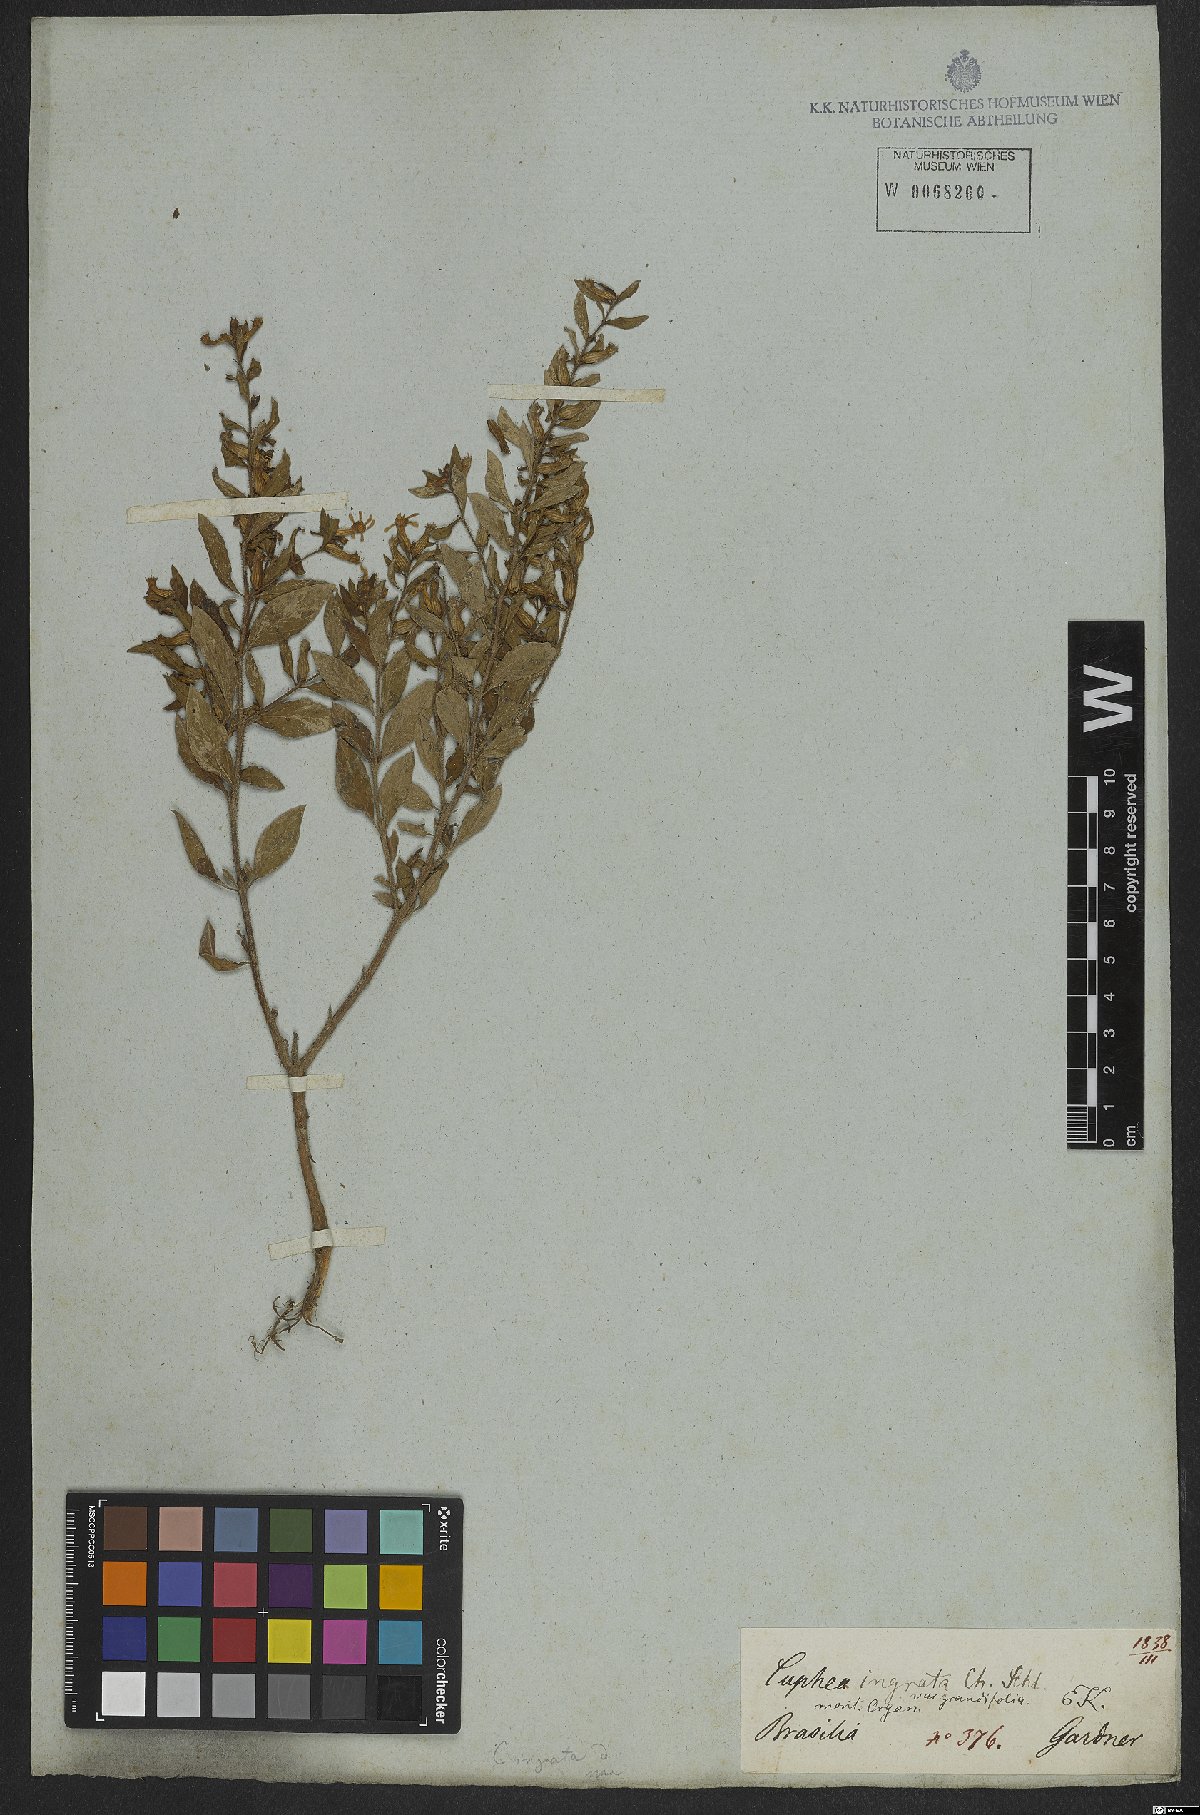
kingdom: Plantae
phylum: Tracheophyta
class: Magnoliopsida
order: Myrtales
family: Lythraceae
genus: Cuphea
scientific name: Cuphea ingrata
